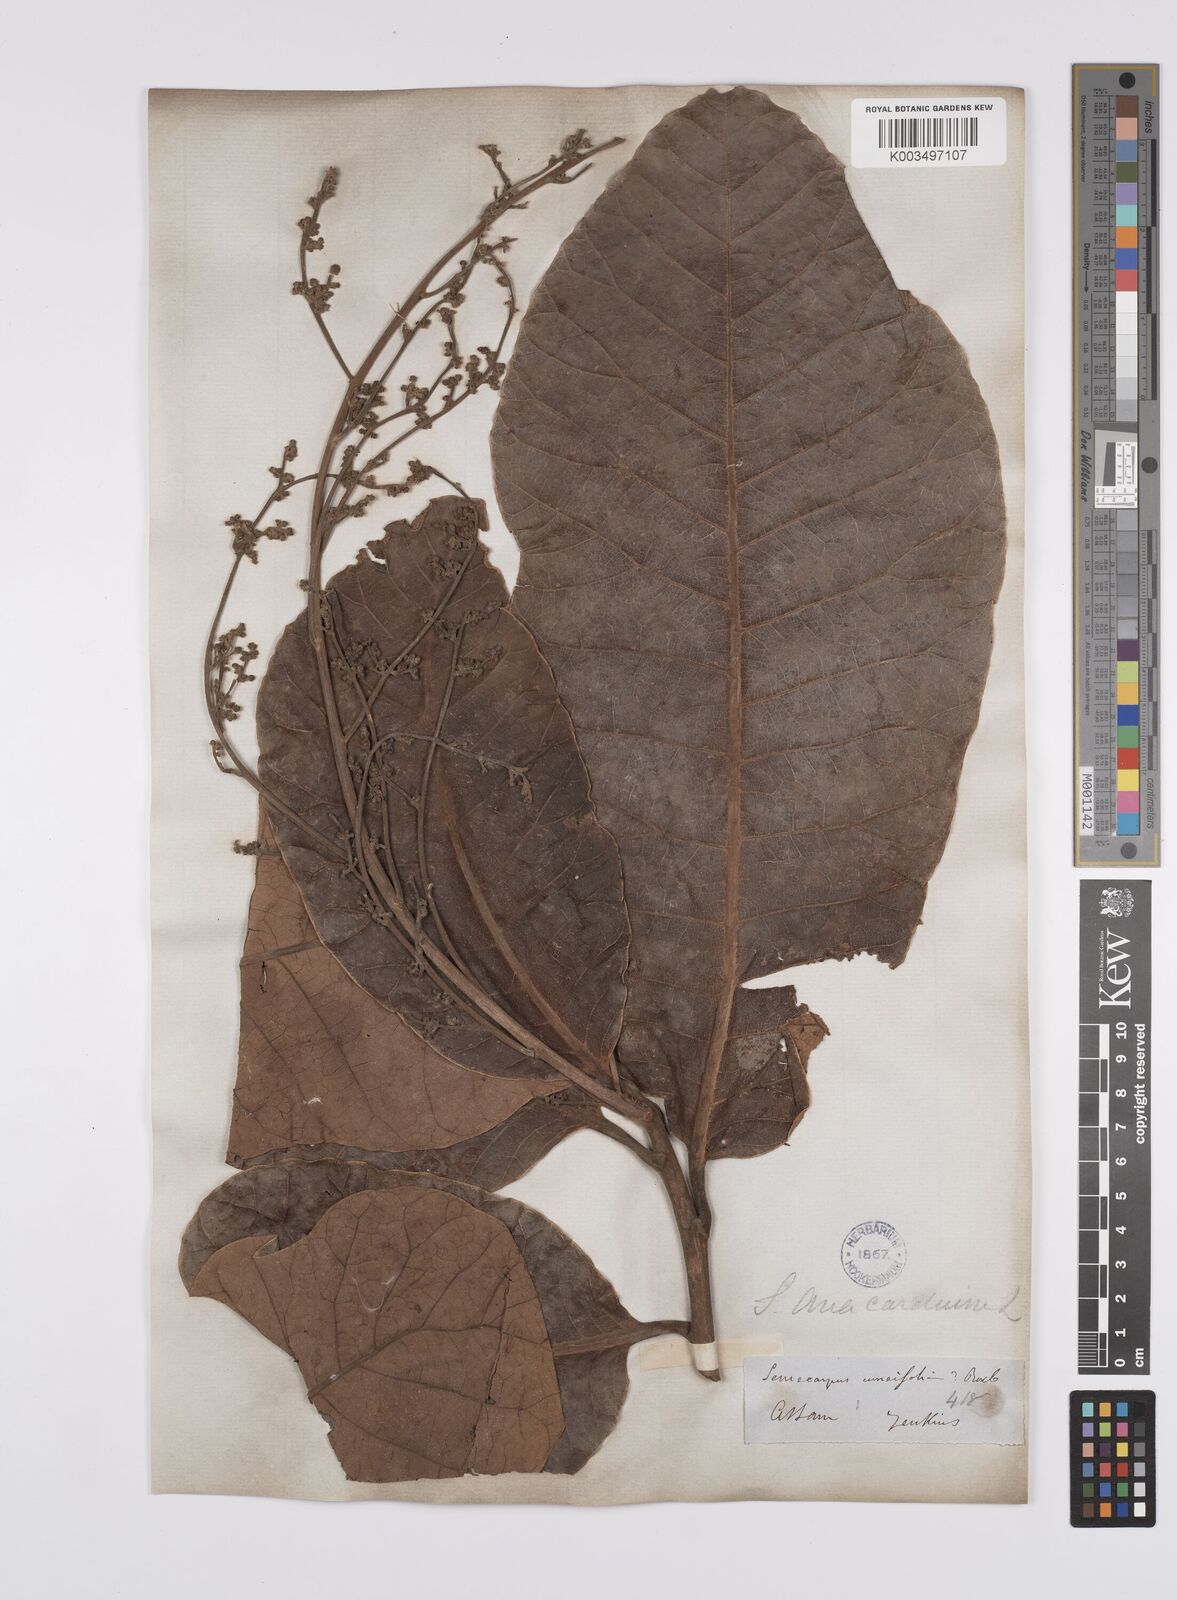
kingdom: Plantae
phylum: Tracheophyta
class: Magnoliopsida
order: Sapindales
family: Anacardiaceae
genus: Semecarpus
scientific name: Semecarpus anacardium
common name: Marking nut-tree
